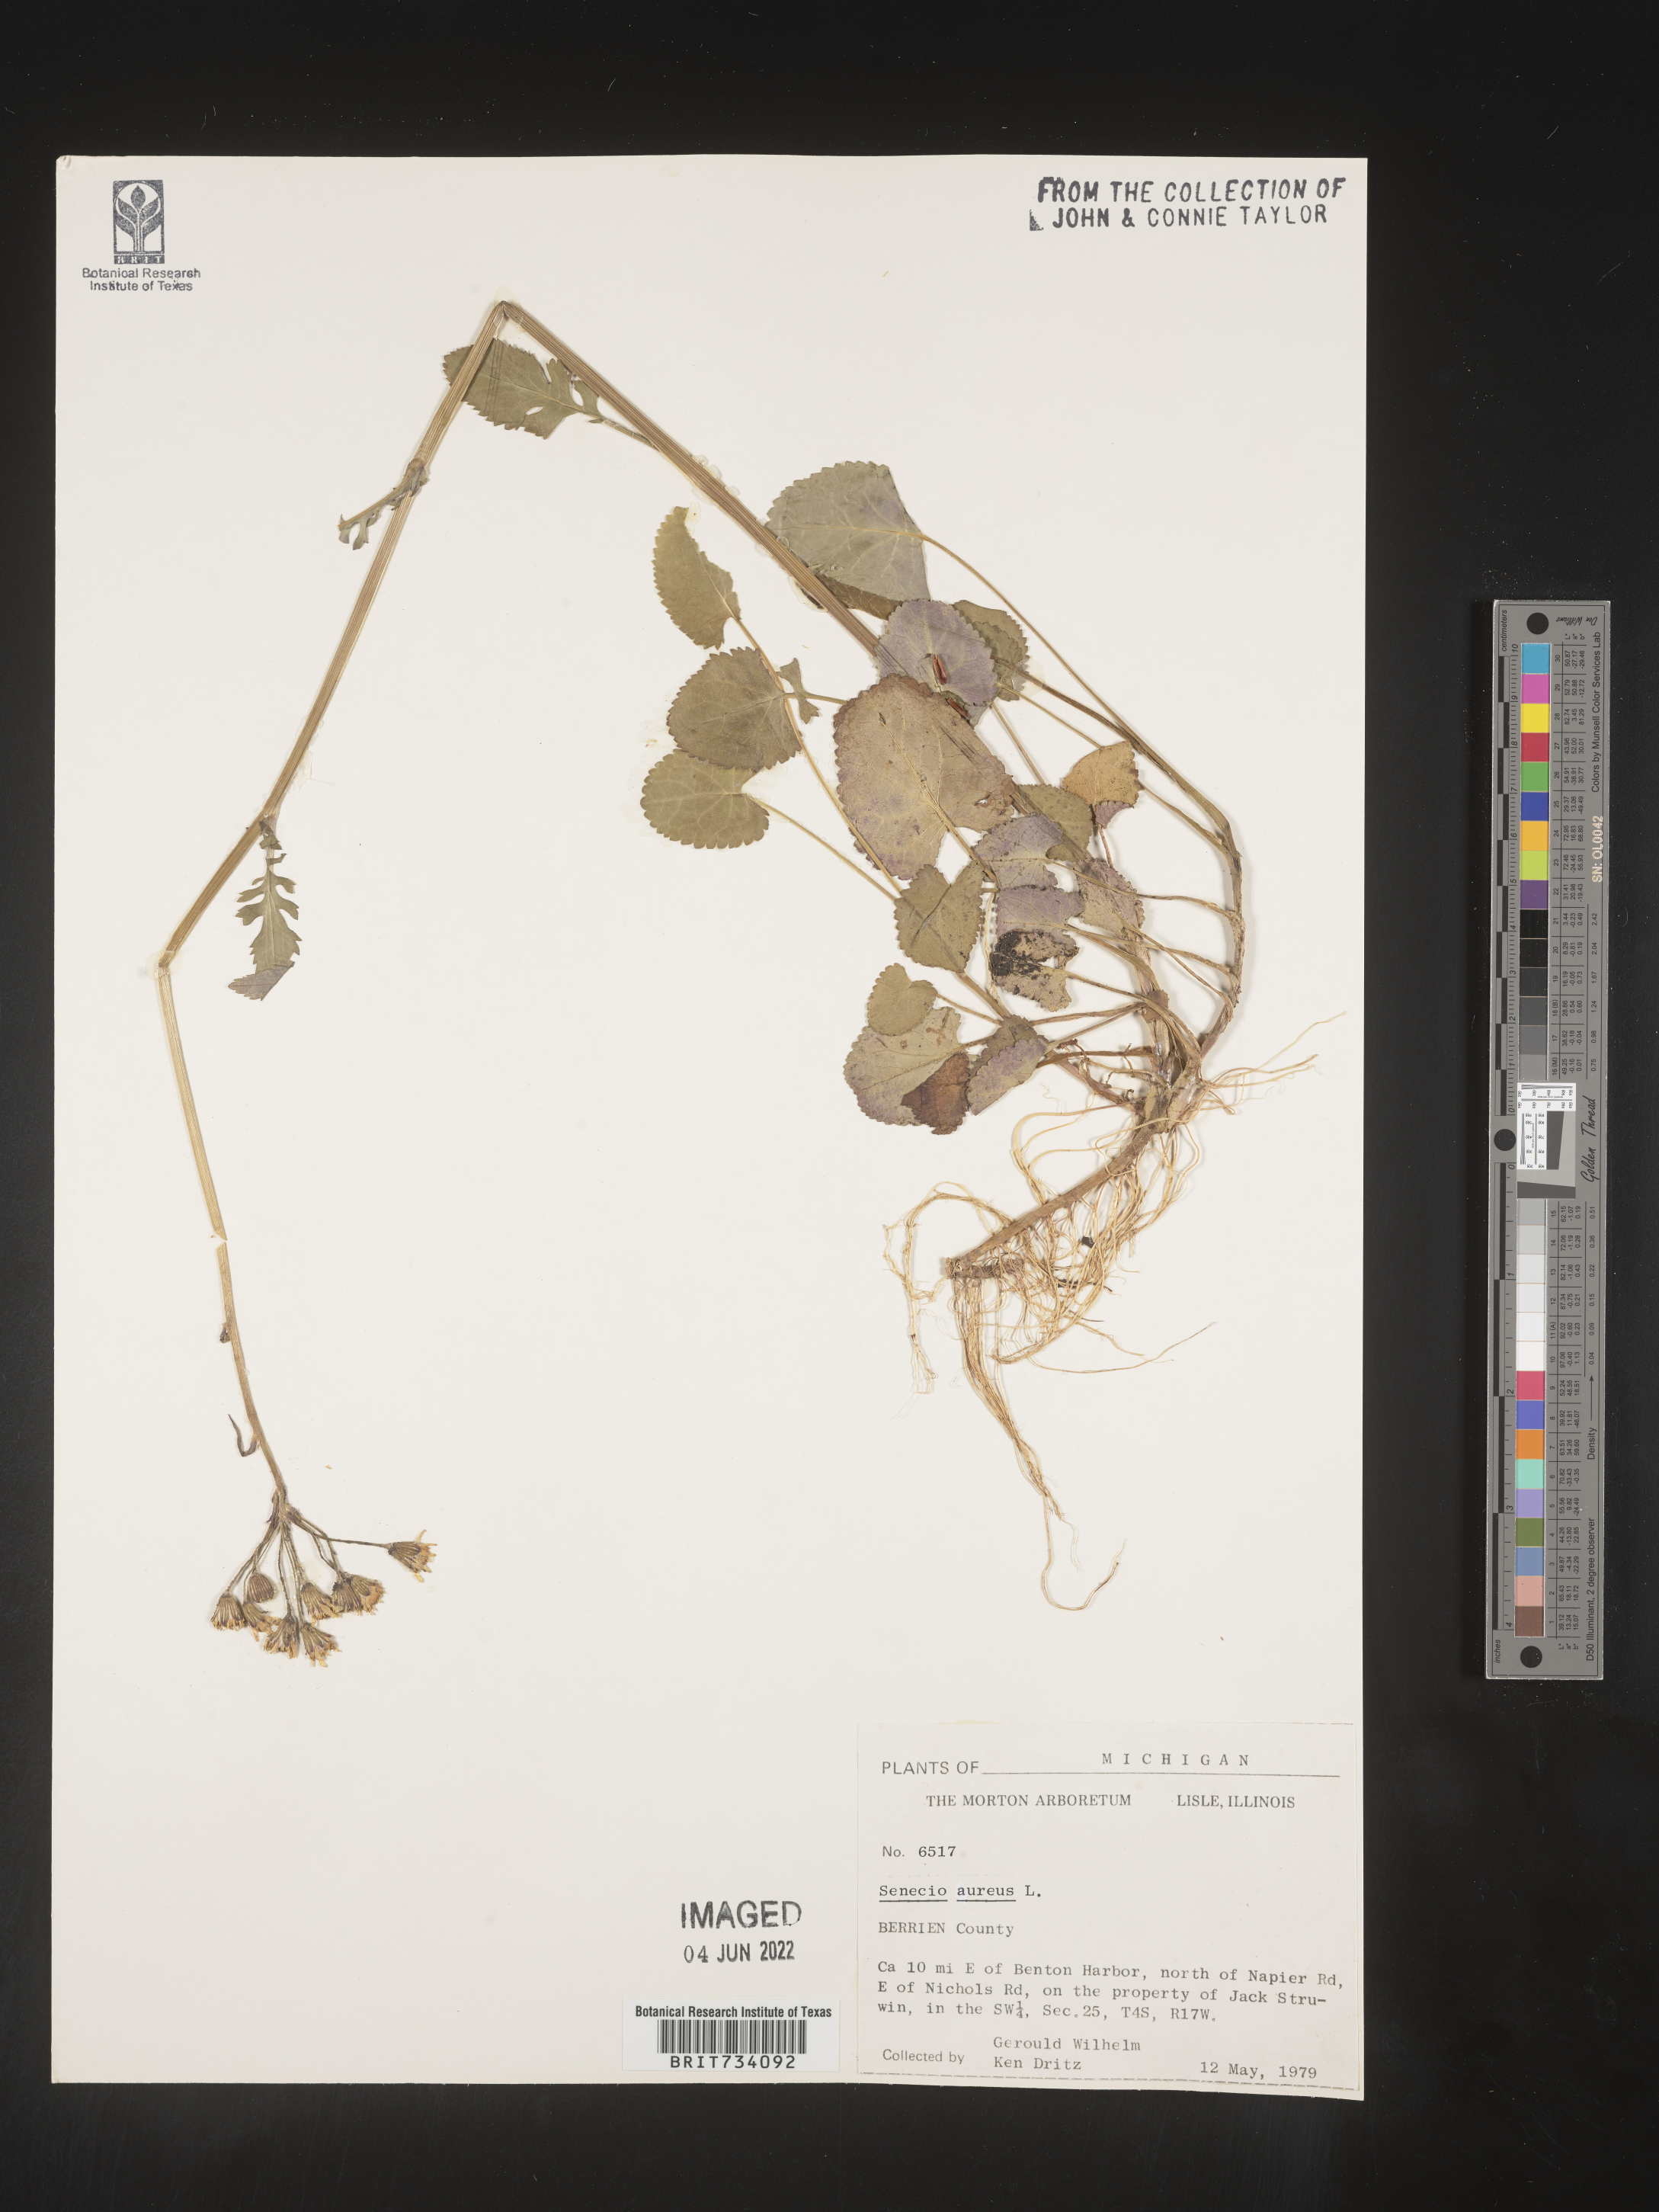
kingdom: Plantae
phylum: Tracheophyta
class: Magnoliopsida
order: Asterales
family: Asteraceae
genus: Packera
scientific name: Packera aurea
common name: Golden groundsel
